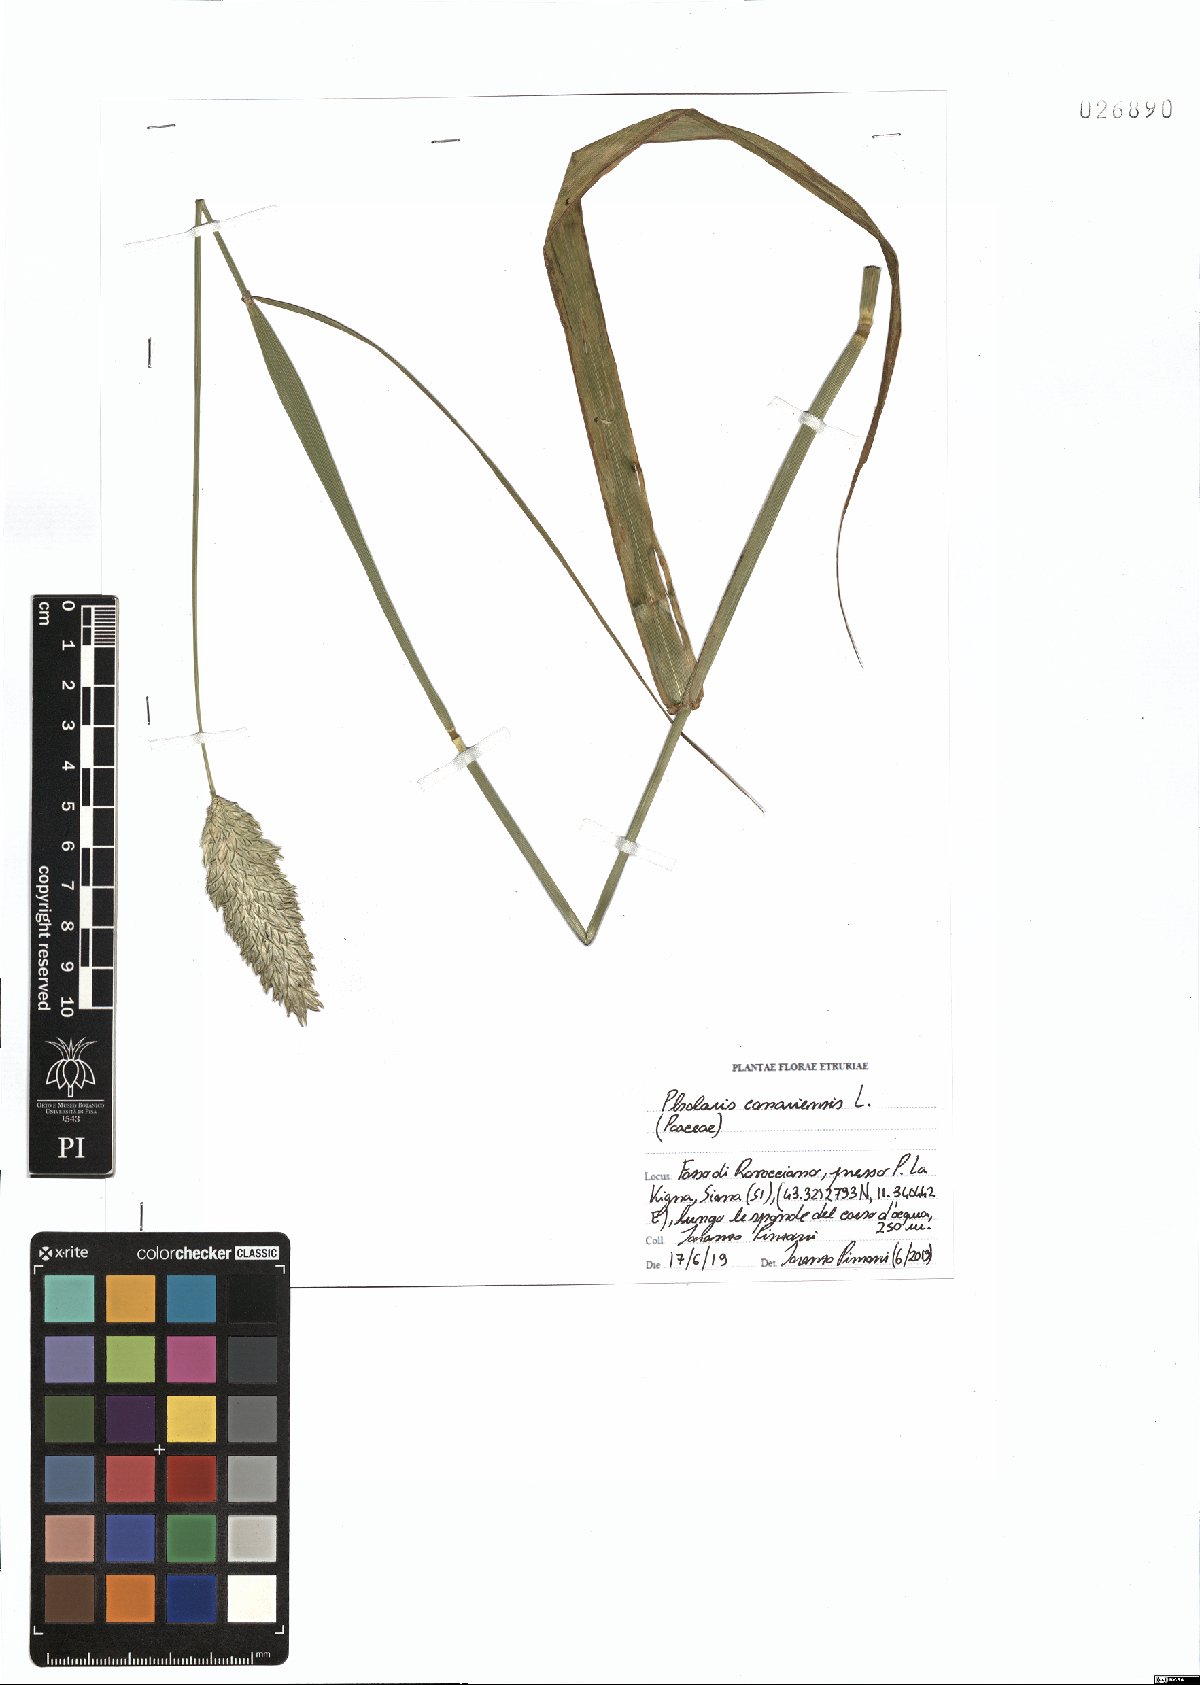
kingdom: Plantae
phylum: Tracheophyta
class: Liliopsida
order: Poales
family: Poaceae
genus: Phalaris
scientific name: Phalaris canariensis
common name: Annual canarygrass
